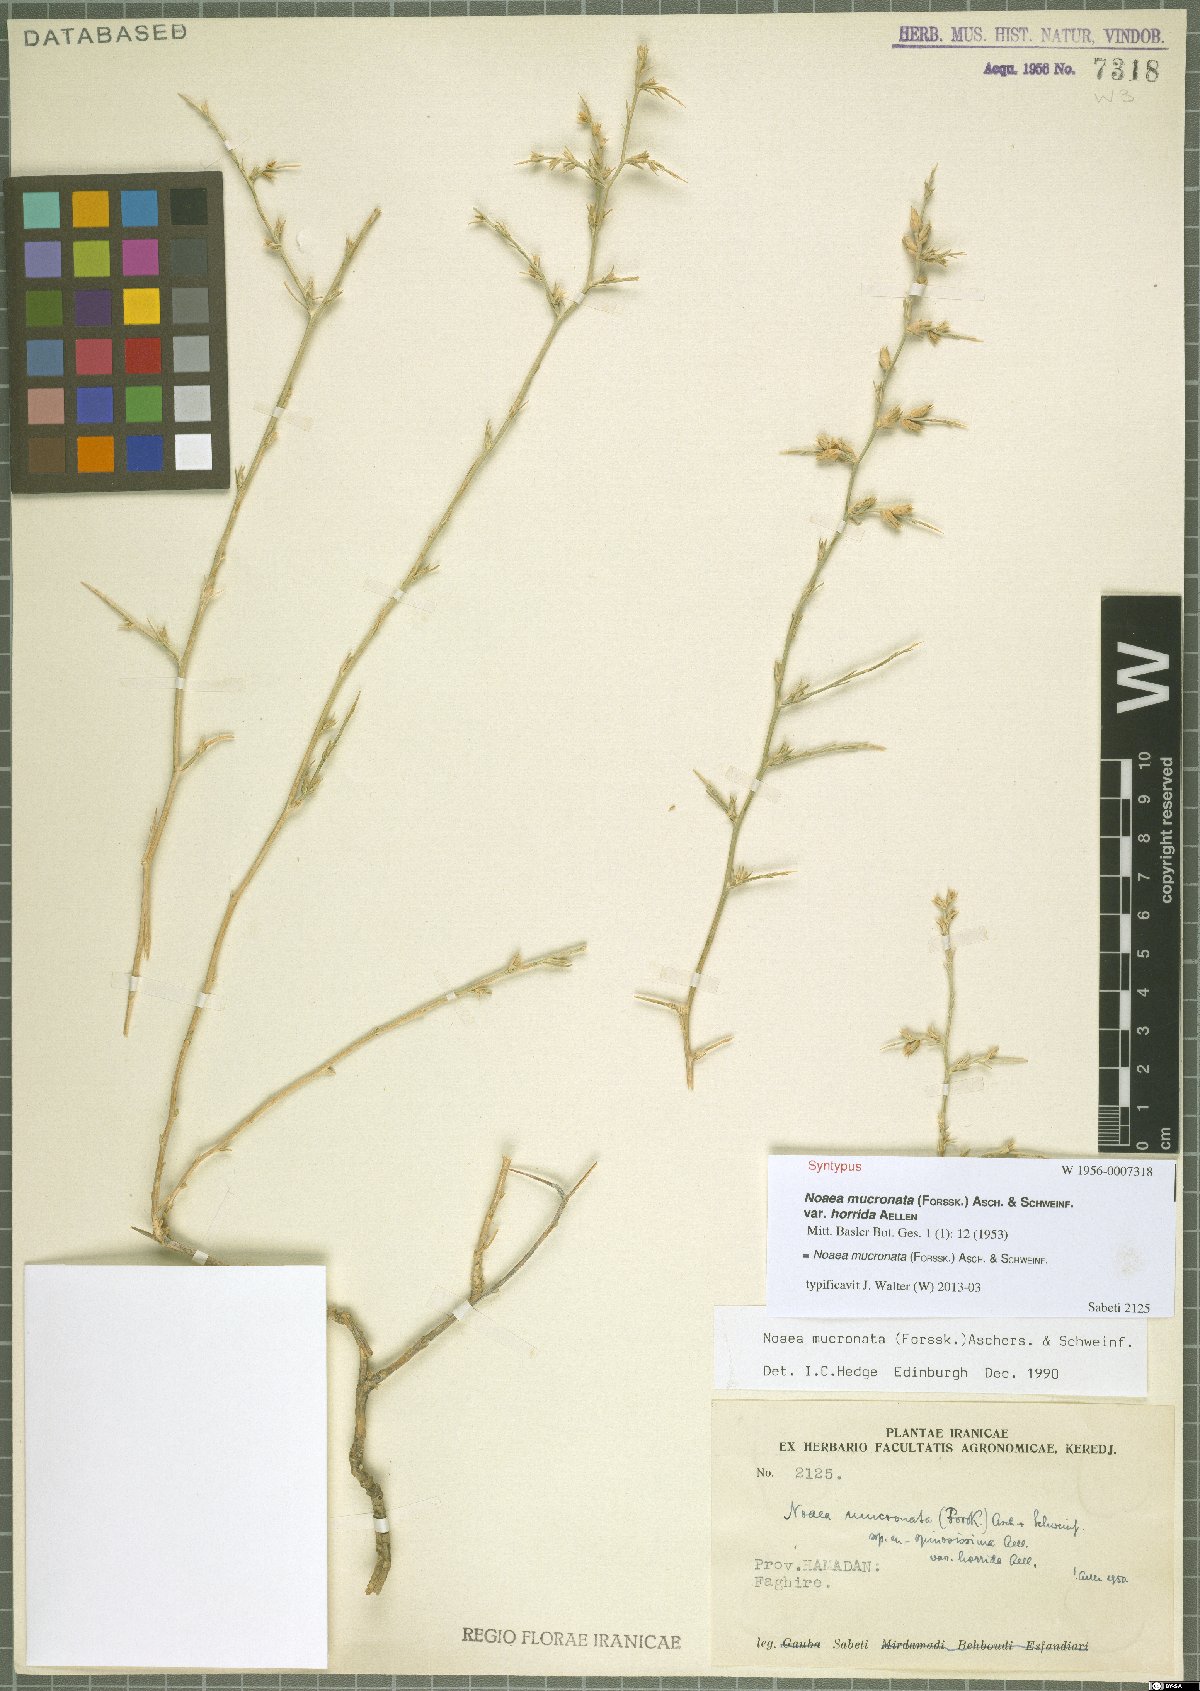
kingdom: Plantae
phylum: Tracheophyta
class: Magnoliopsida
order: Caryophyllales
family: Amaranthaceae
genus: Noaea
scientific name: Noaea mucronata
